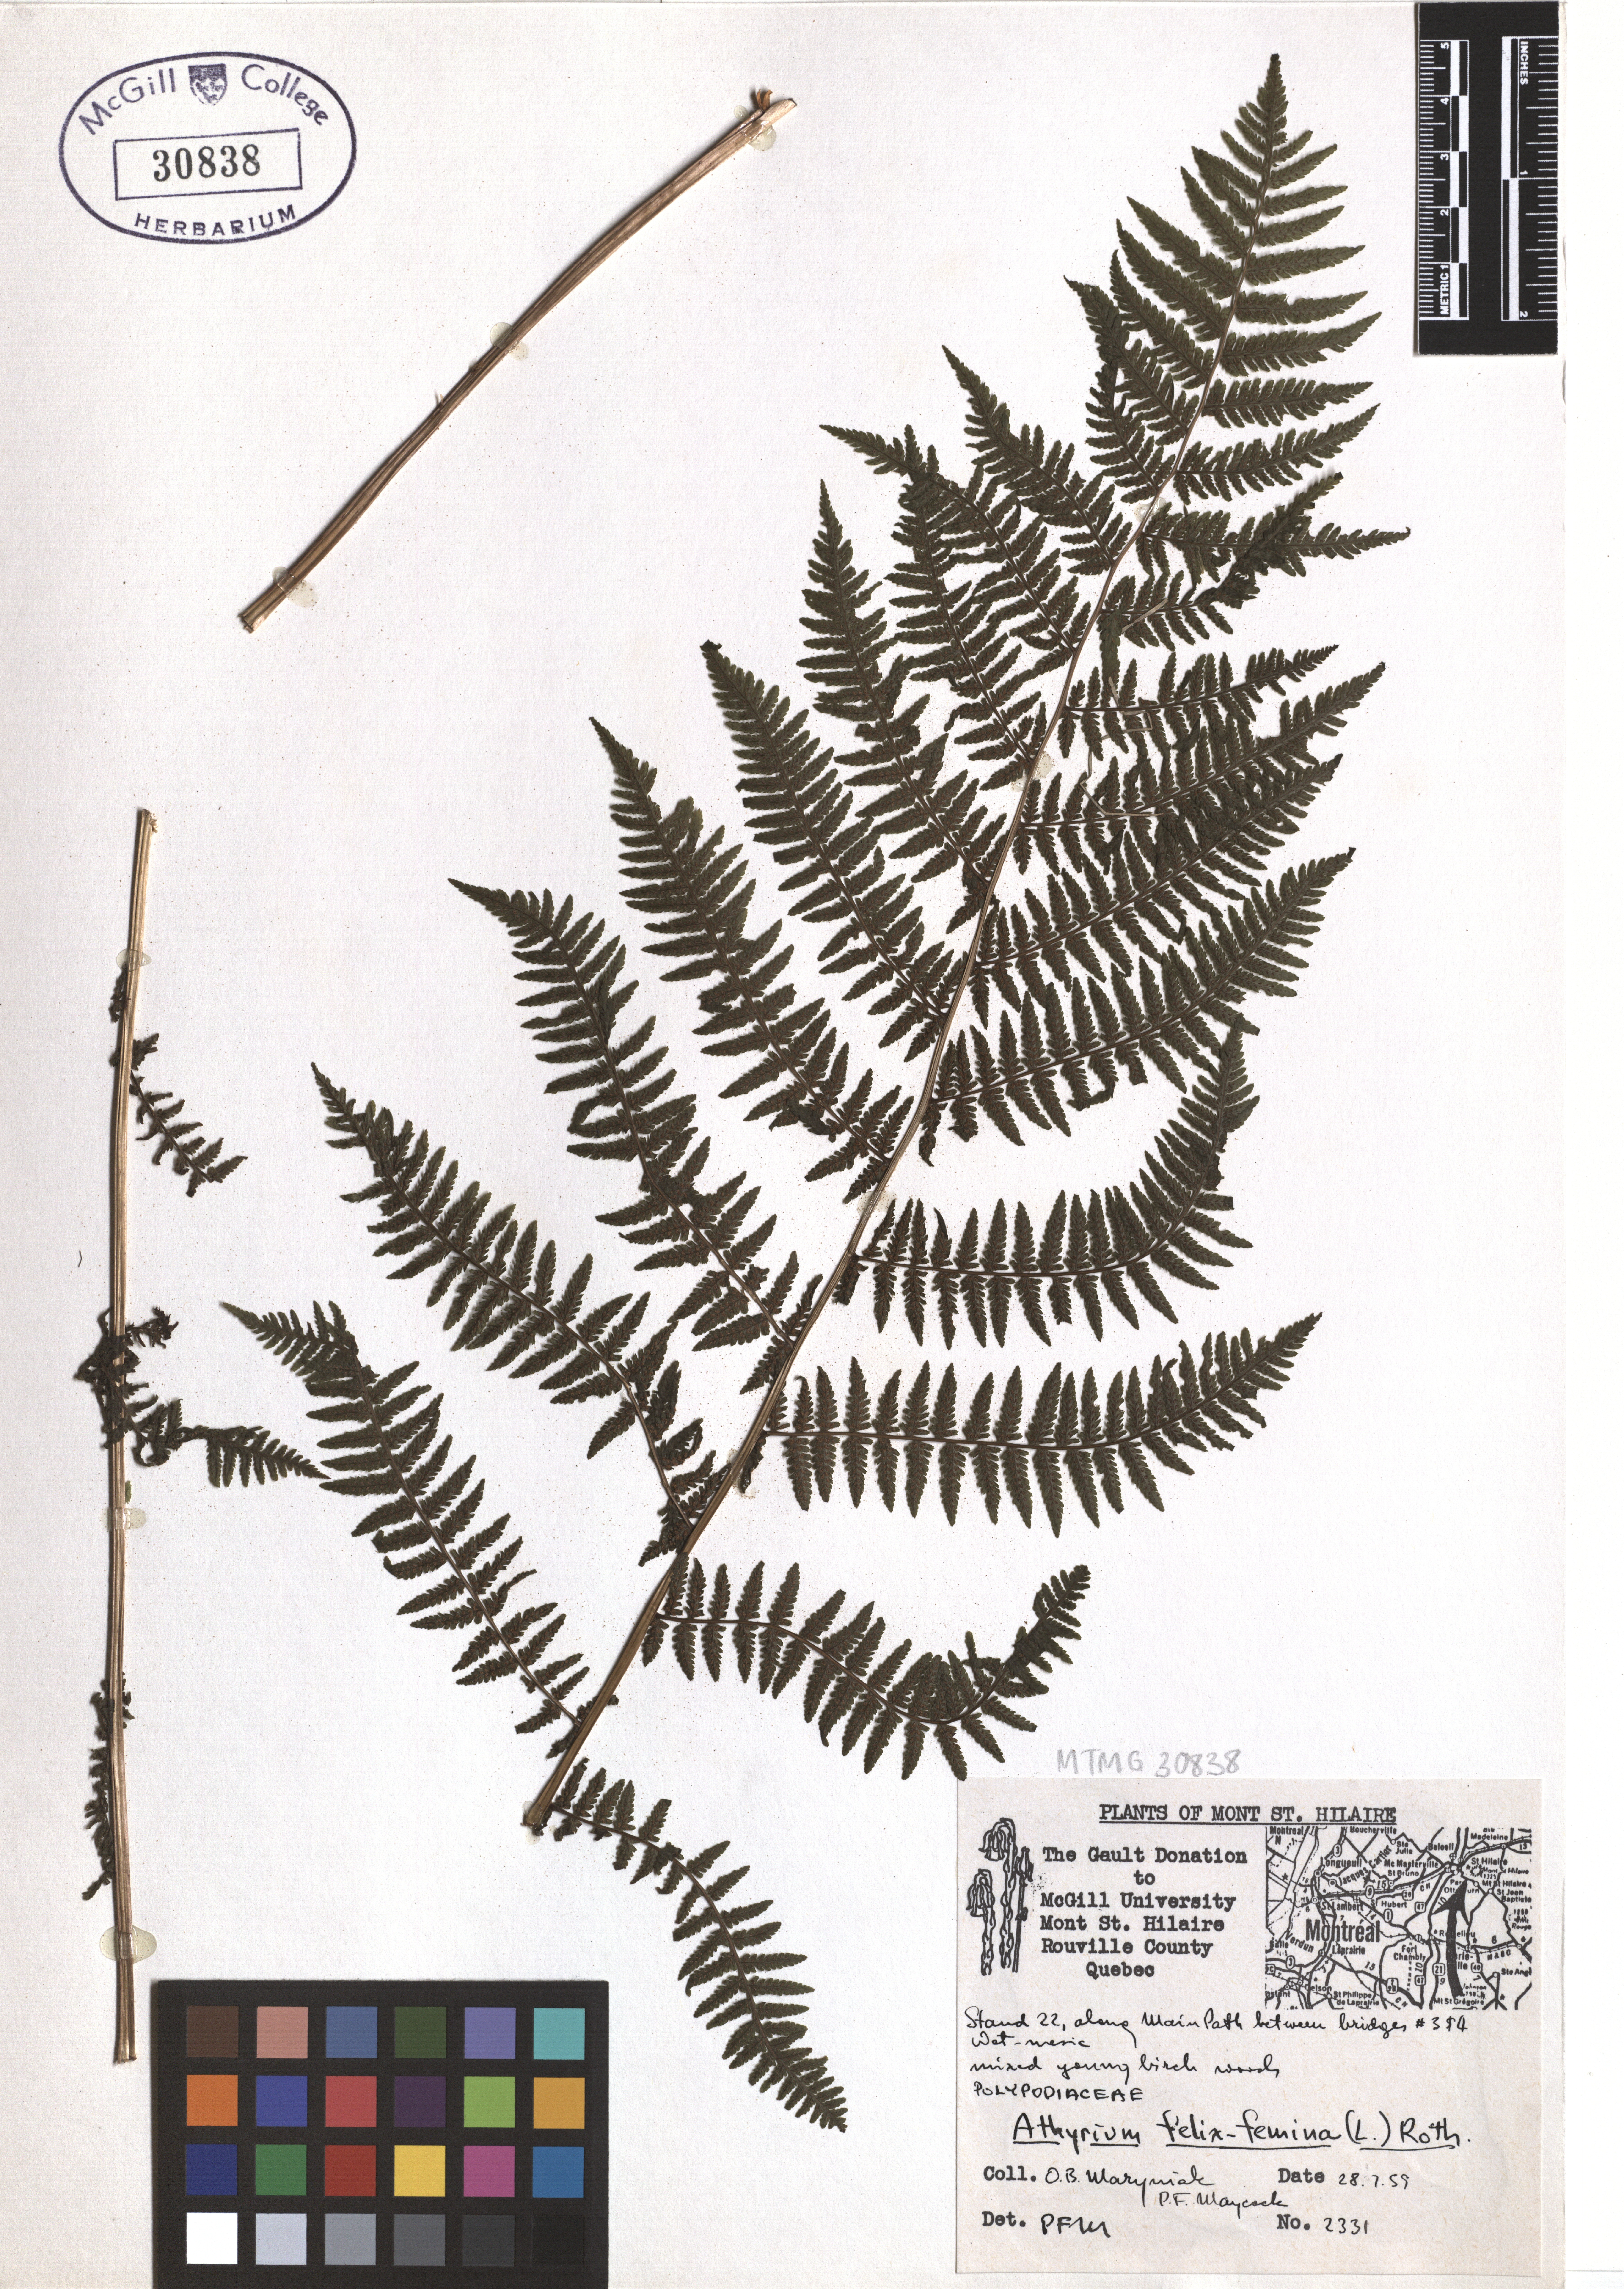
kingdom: Plantae
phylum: Tracheophyta
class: Polypodiopsida
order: Polypodiales
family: Athyriaceae
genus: Athyrium
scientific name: Athyrium filix-femina
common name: Lady fern
